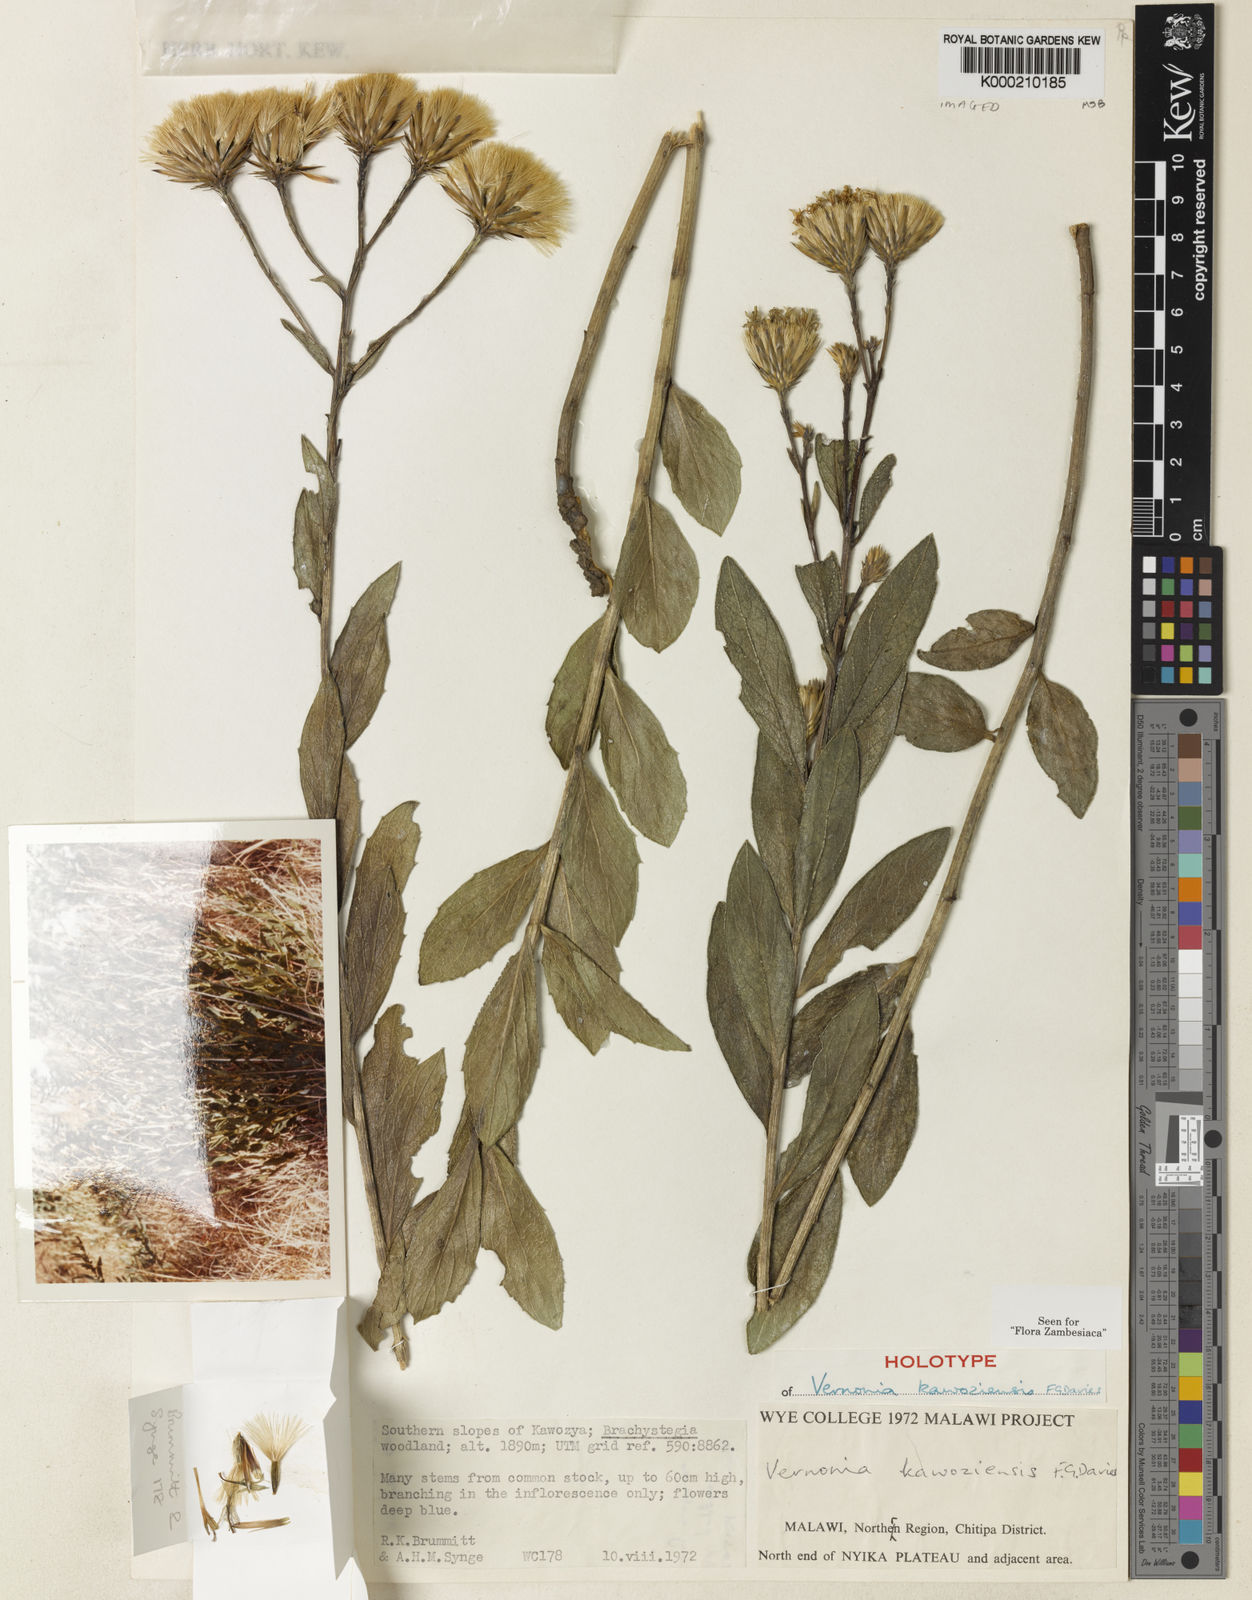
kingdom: Plantae
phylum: Tracheophyta
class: Magnoliopsida
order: Asterales
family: Asteraceae
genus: Vernonia
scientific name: Vernonia kawoziensis
